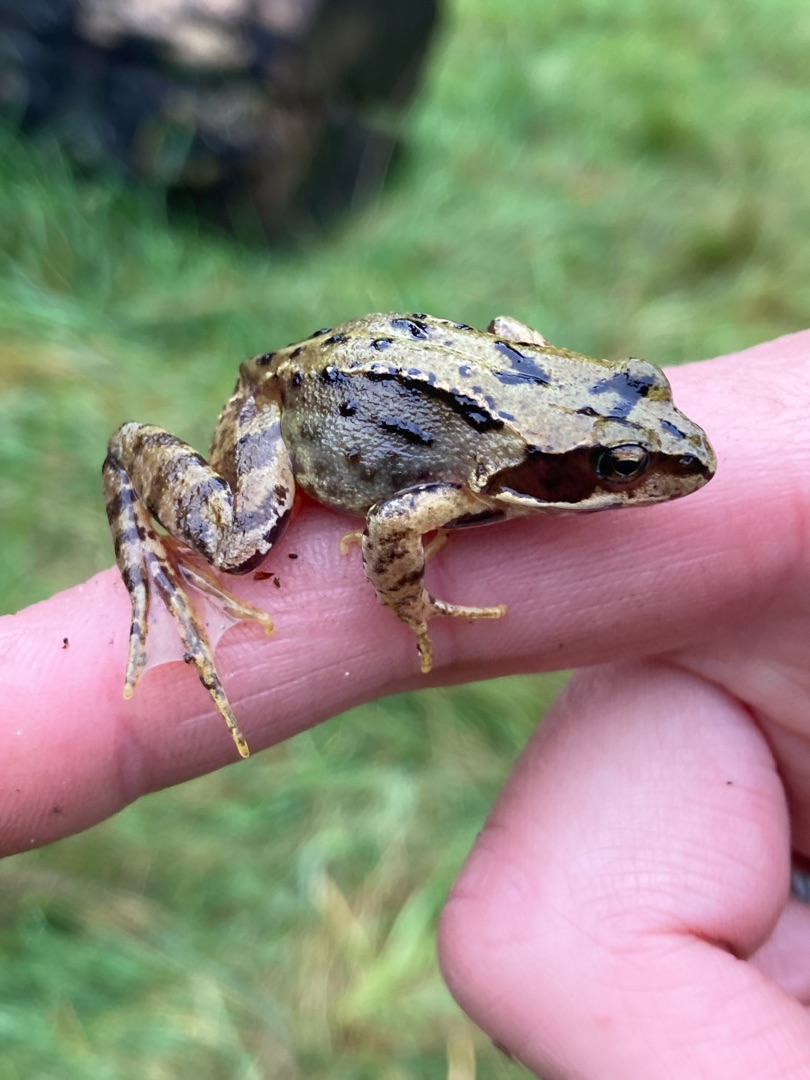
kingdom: Animalia
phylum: Chordata
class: Amphibia
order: Anura
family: Ranidae
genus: Rana
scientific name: Rana temporaria
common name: Butsnudet frø
